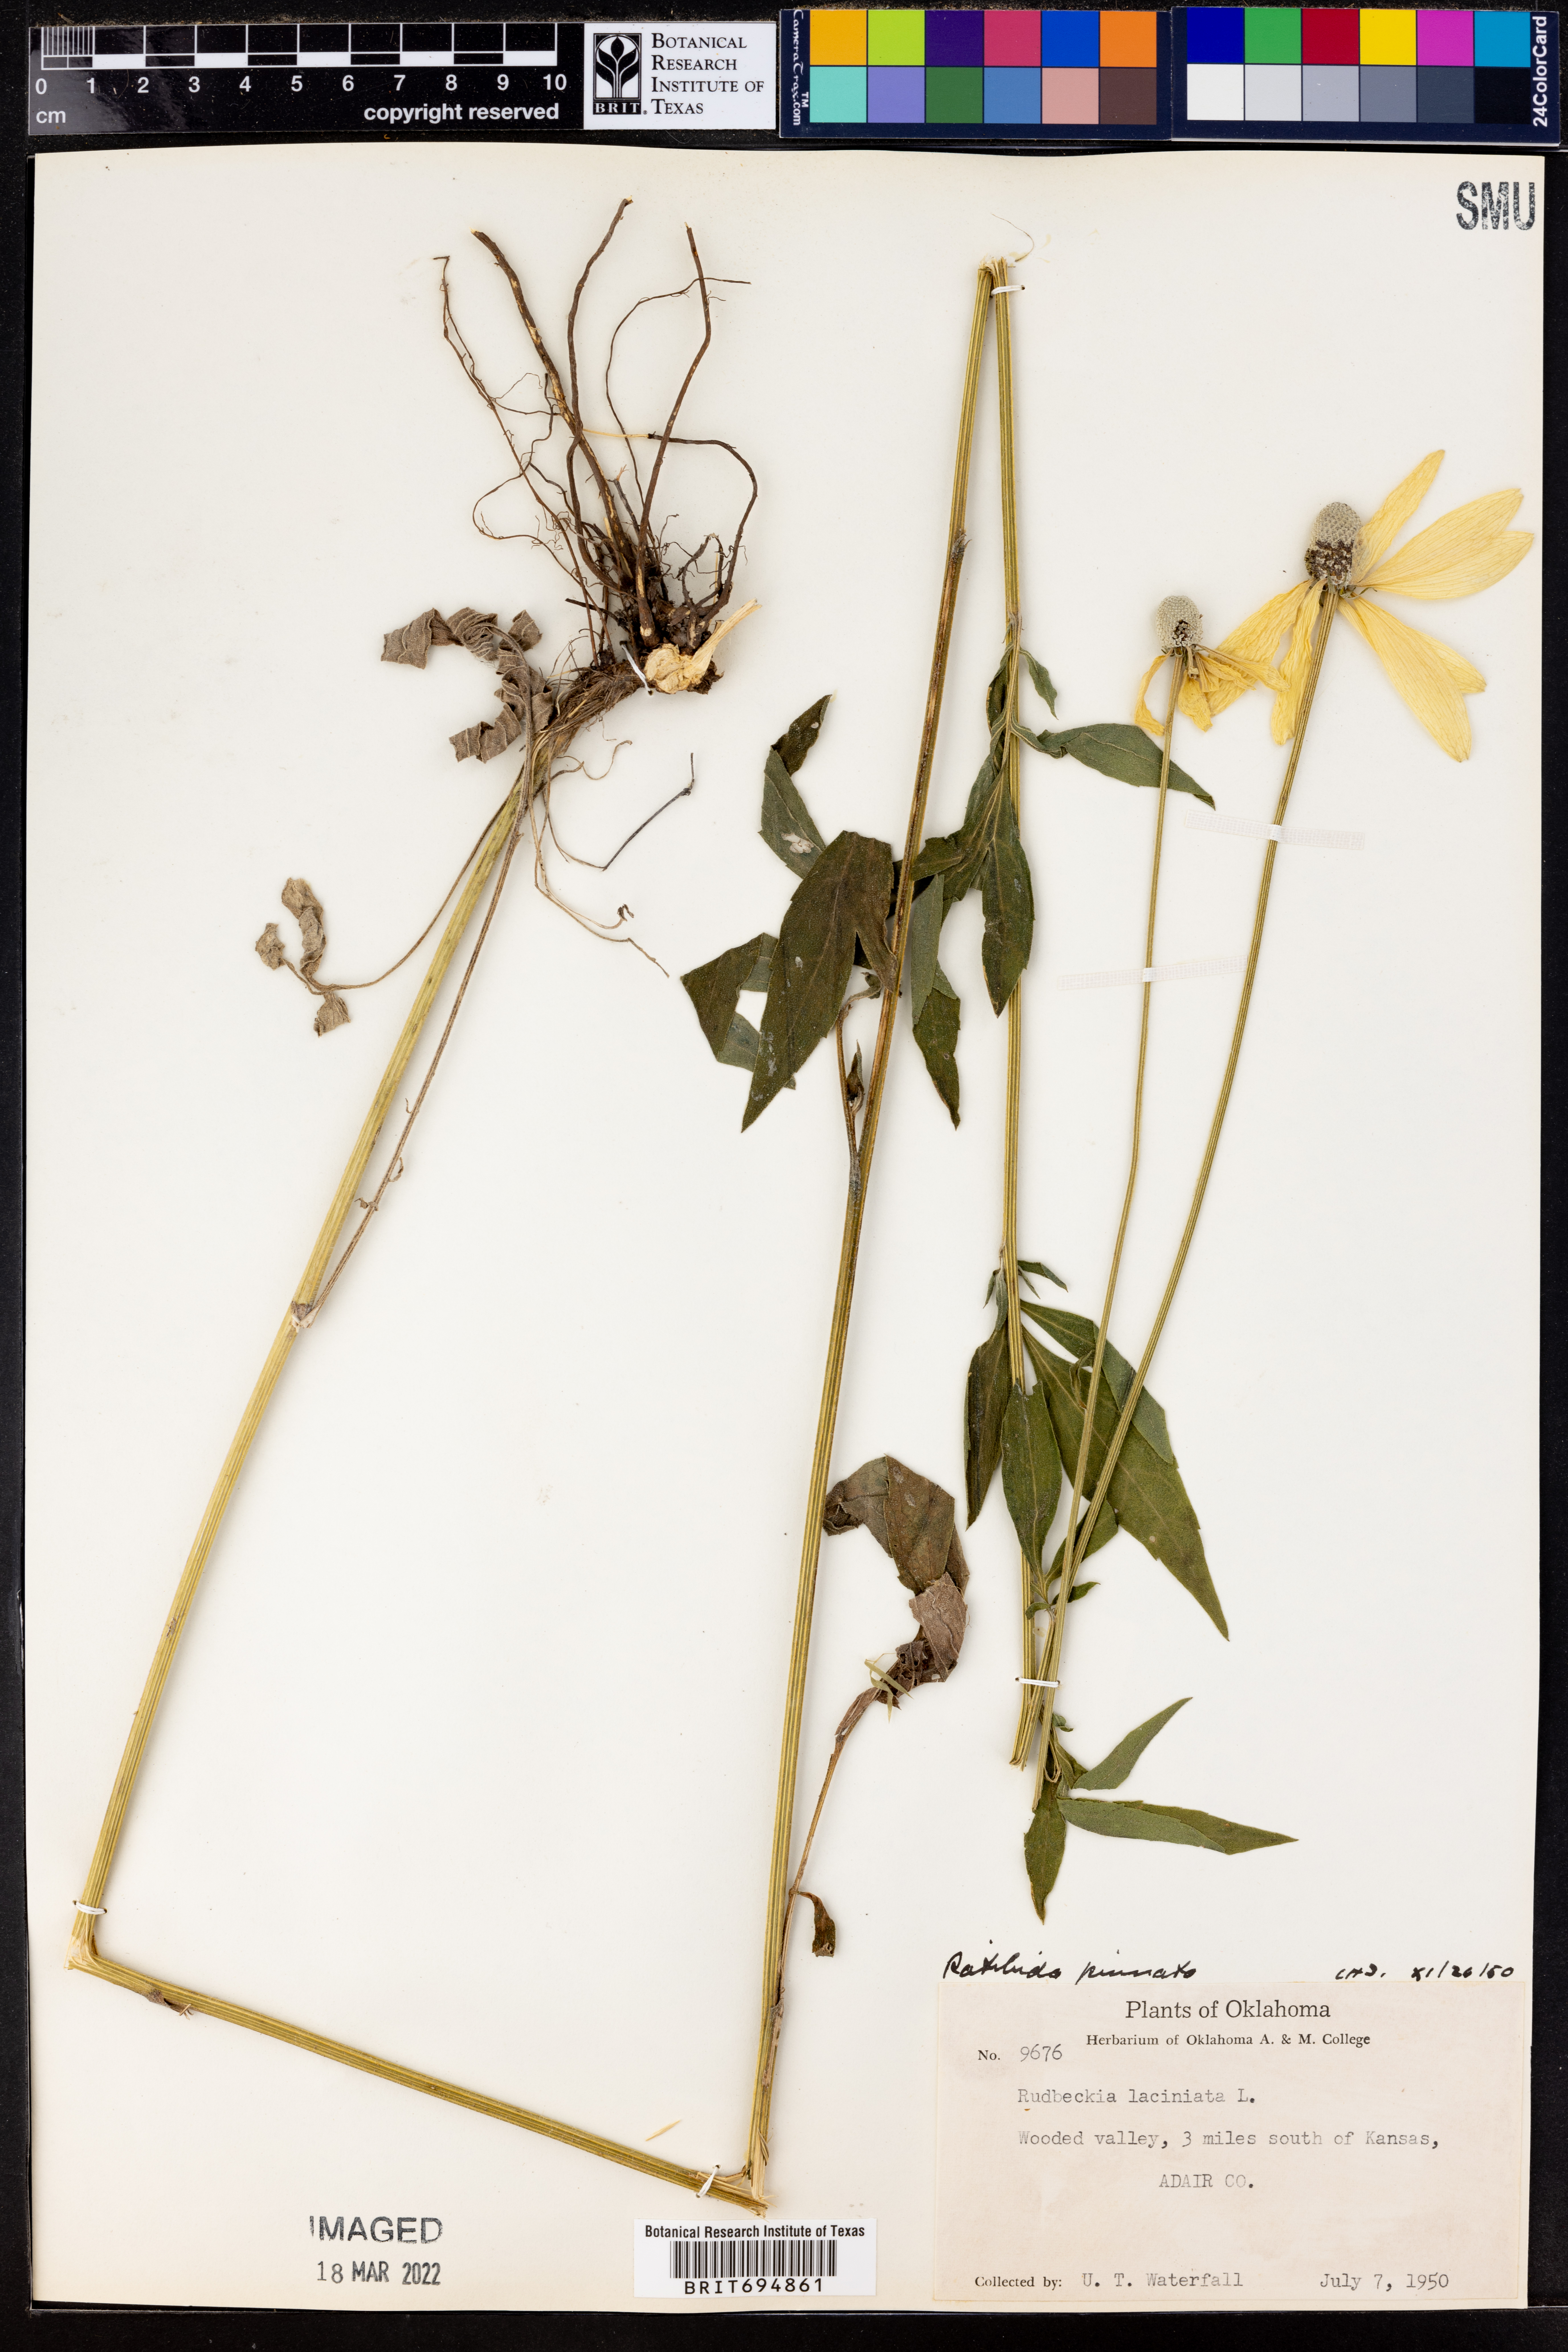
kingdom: Plantae
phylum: Tracheophyta
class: Magnoliopsida
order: Asterales
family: Asteraceae
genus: Ratibida
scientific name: Ratibida pinnata
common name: Drooping prairie-coneflower
